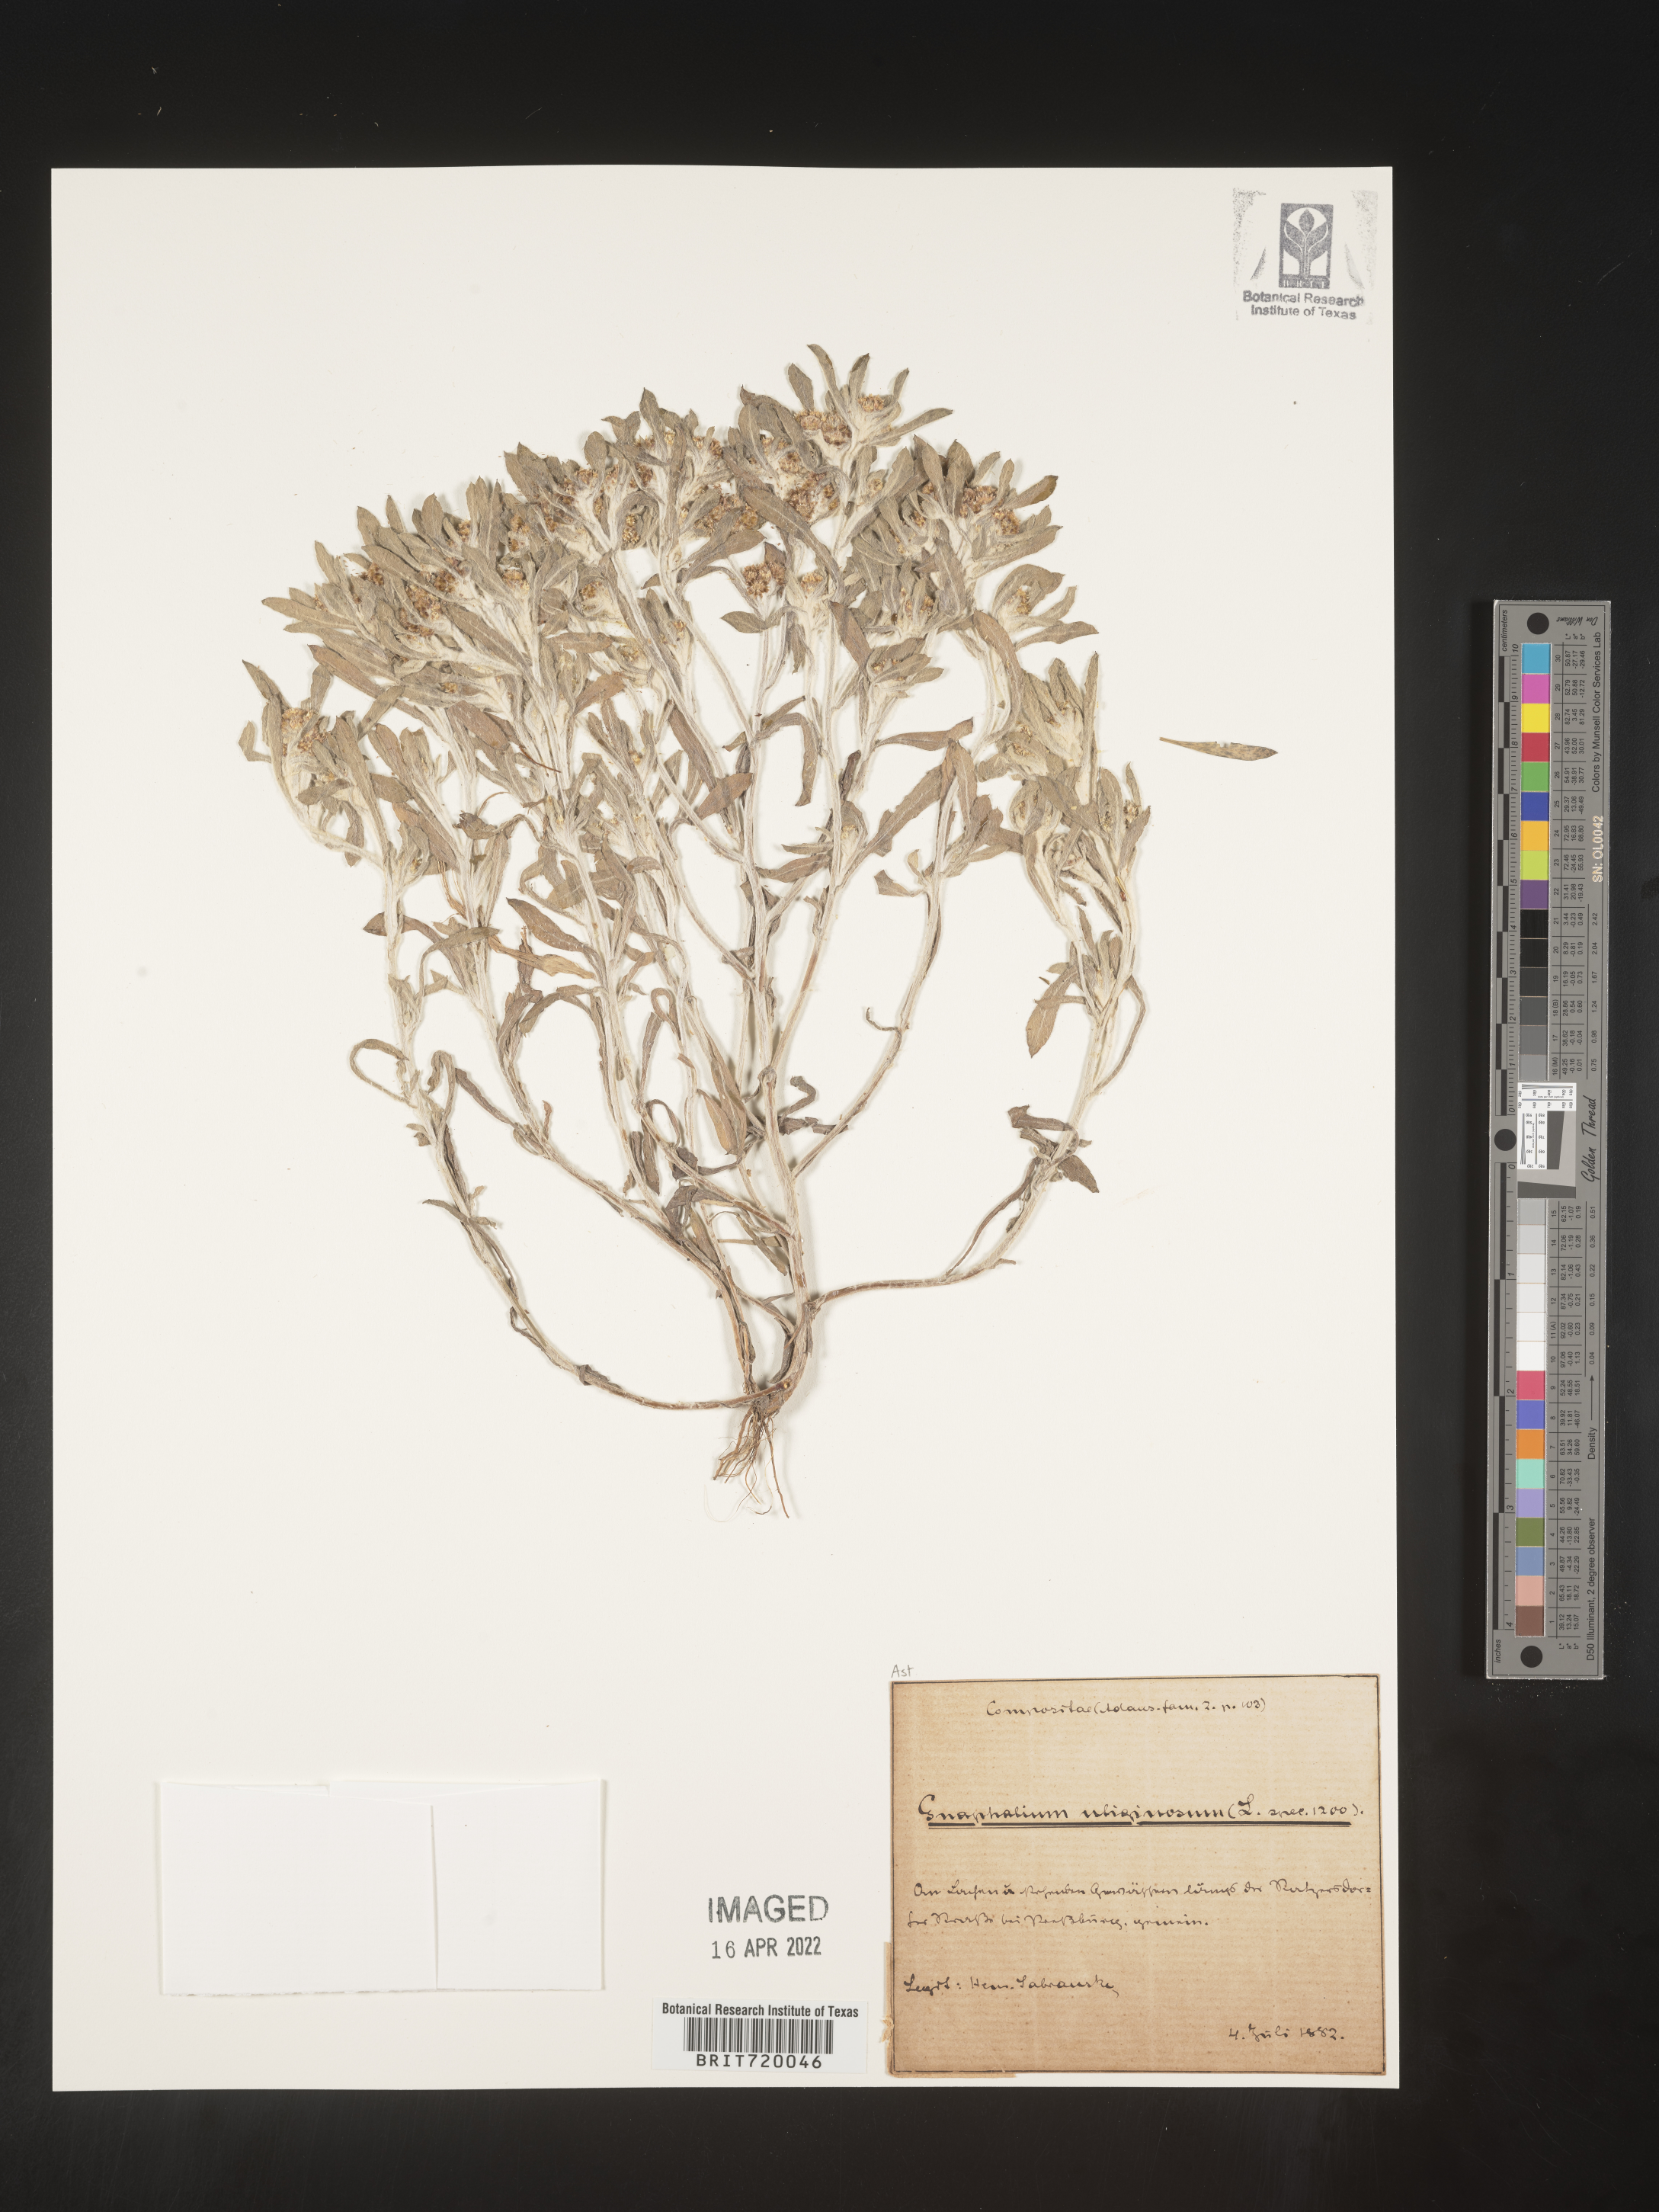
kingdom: Plantae
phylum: Tracheophyta
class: Magnoliopsida
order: Asterales
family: Asteraceae
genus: Gnaphalium
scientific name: Gnaphalium
